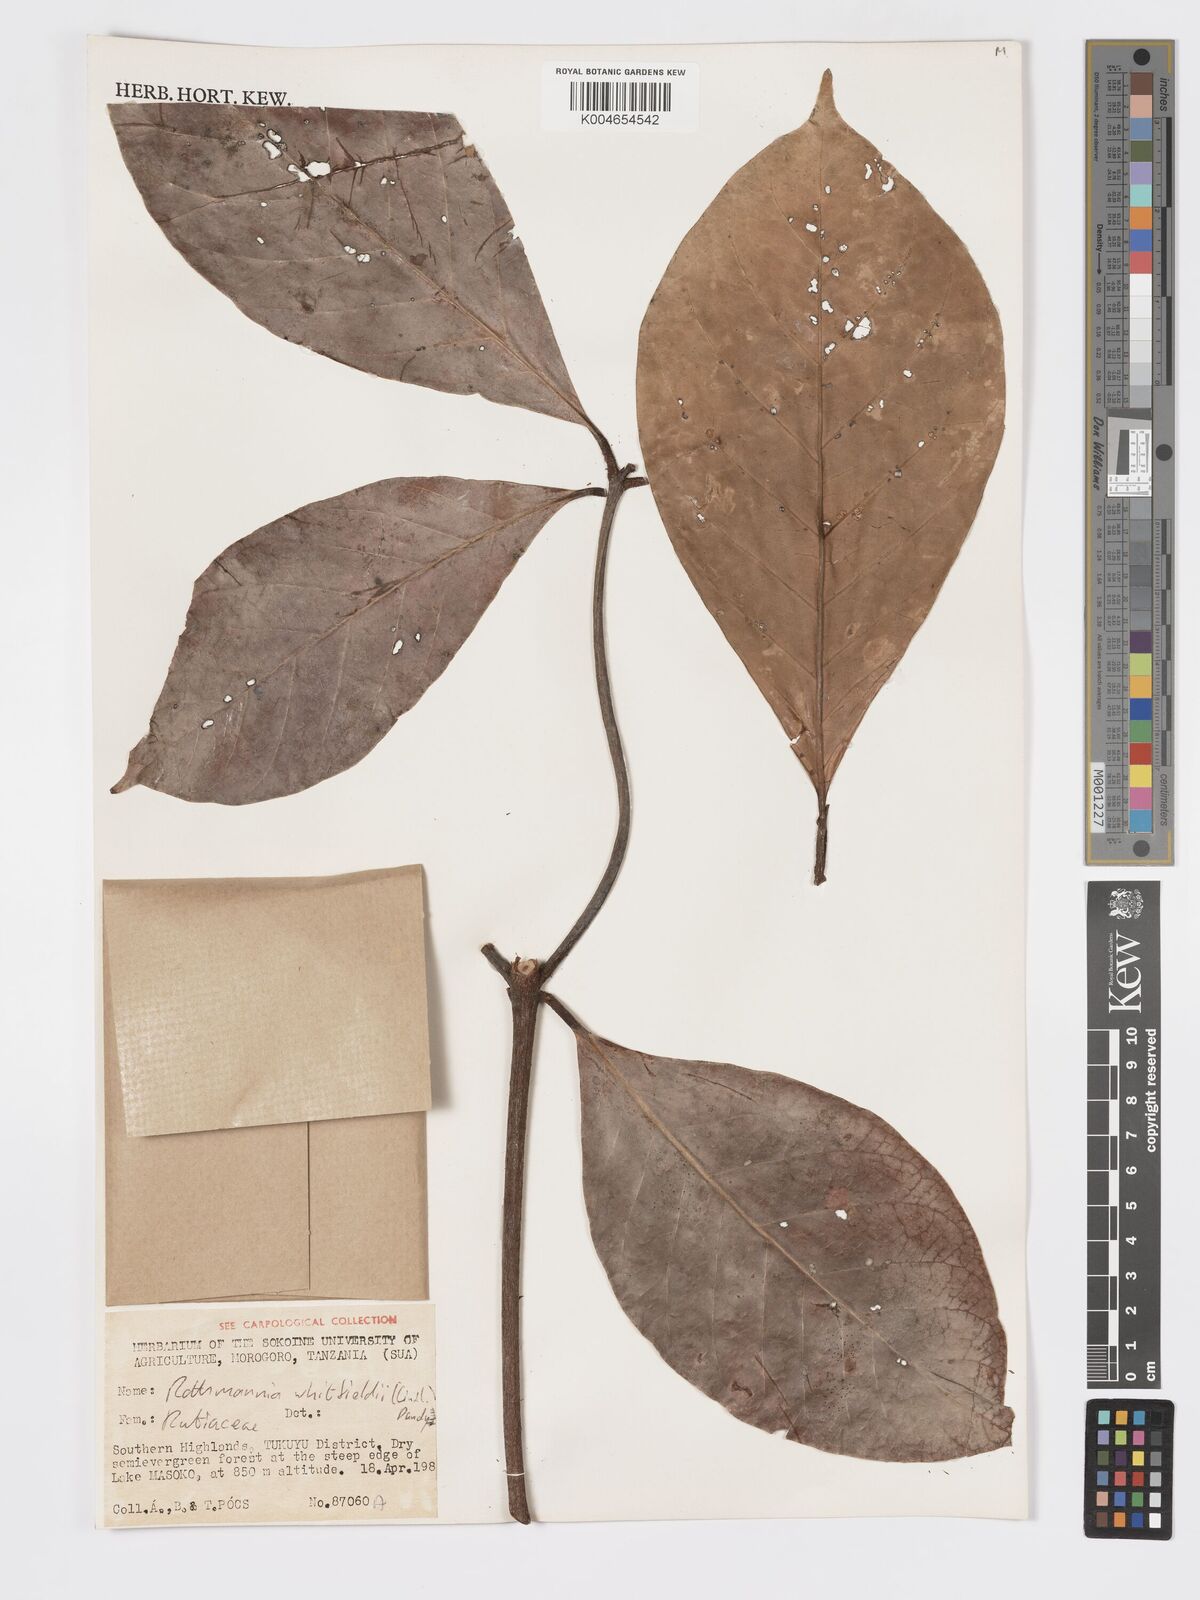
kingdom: Plantae
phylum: Tracheophyta
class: Magnoliopsida
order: Gentianales
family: Rubiaceae
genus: Rothmannia
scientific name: Rothmannia whitfieldii
